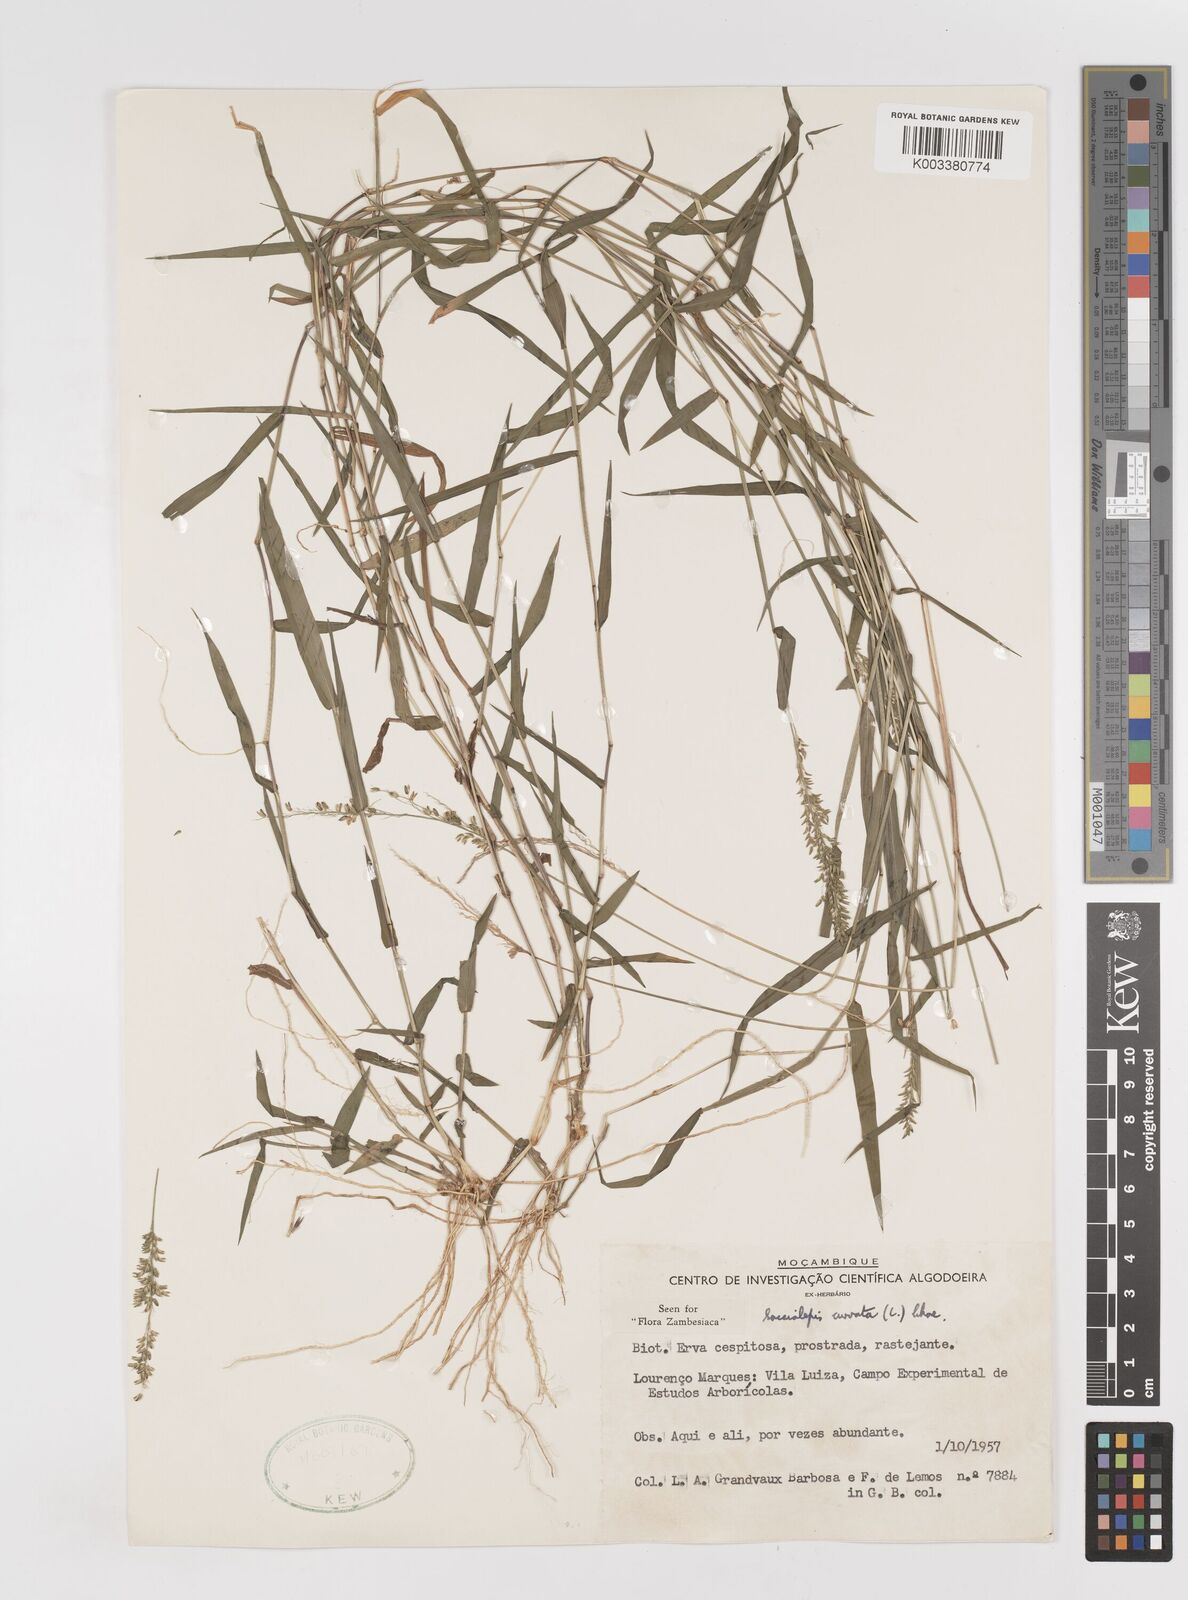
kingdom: Plantae
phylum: Tracheophyta
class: Liliopsida
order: Poales
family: Poaceae
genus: Sacciolepis
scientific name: Sacciolepis curvata
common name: Forest hood grass
